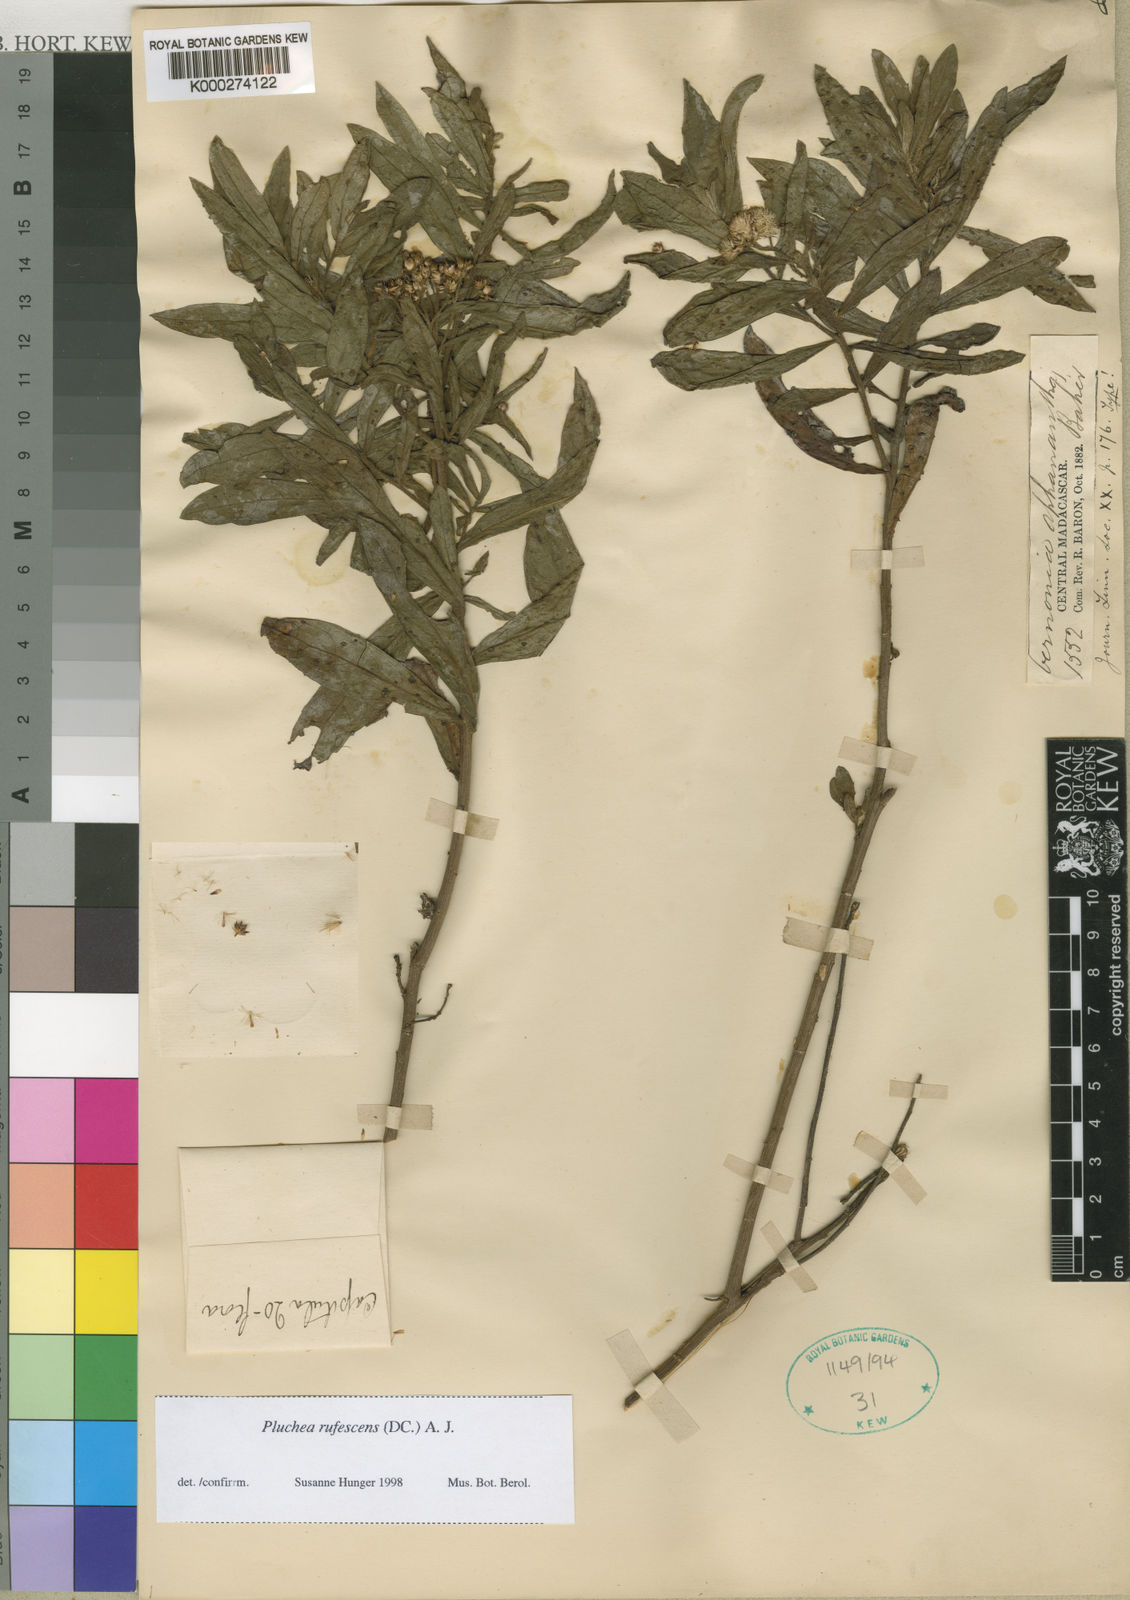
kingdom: Plantae
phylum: Tracheophyta
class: Magnoliopsida
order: Asterales
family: Asteraceae
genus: Pluchea
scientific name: Pluchea rufescens
